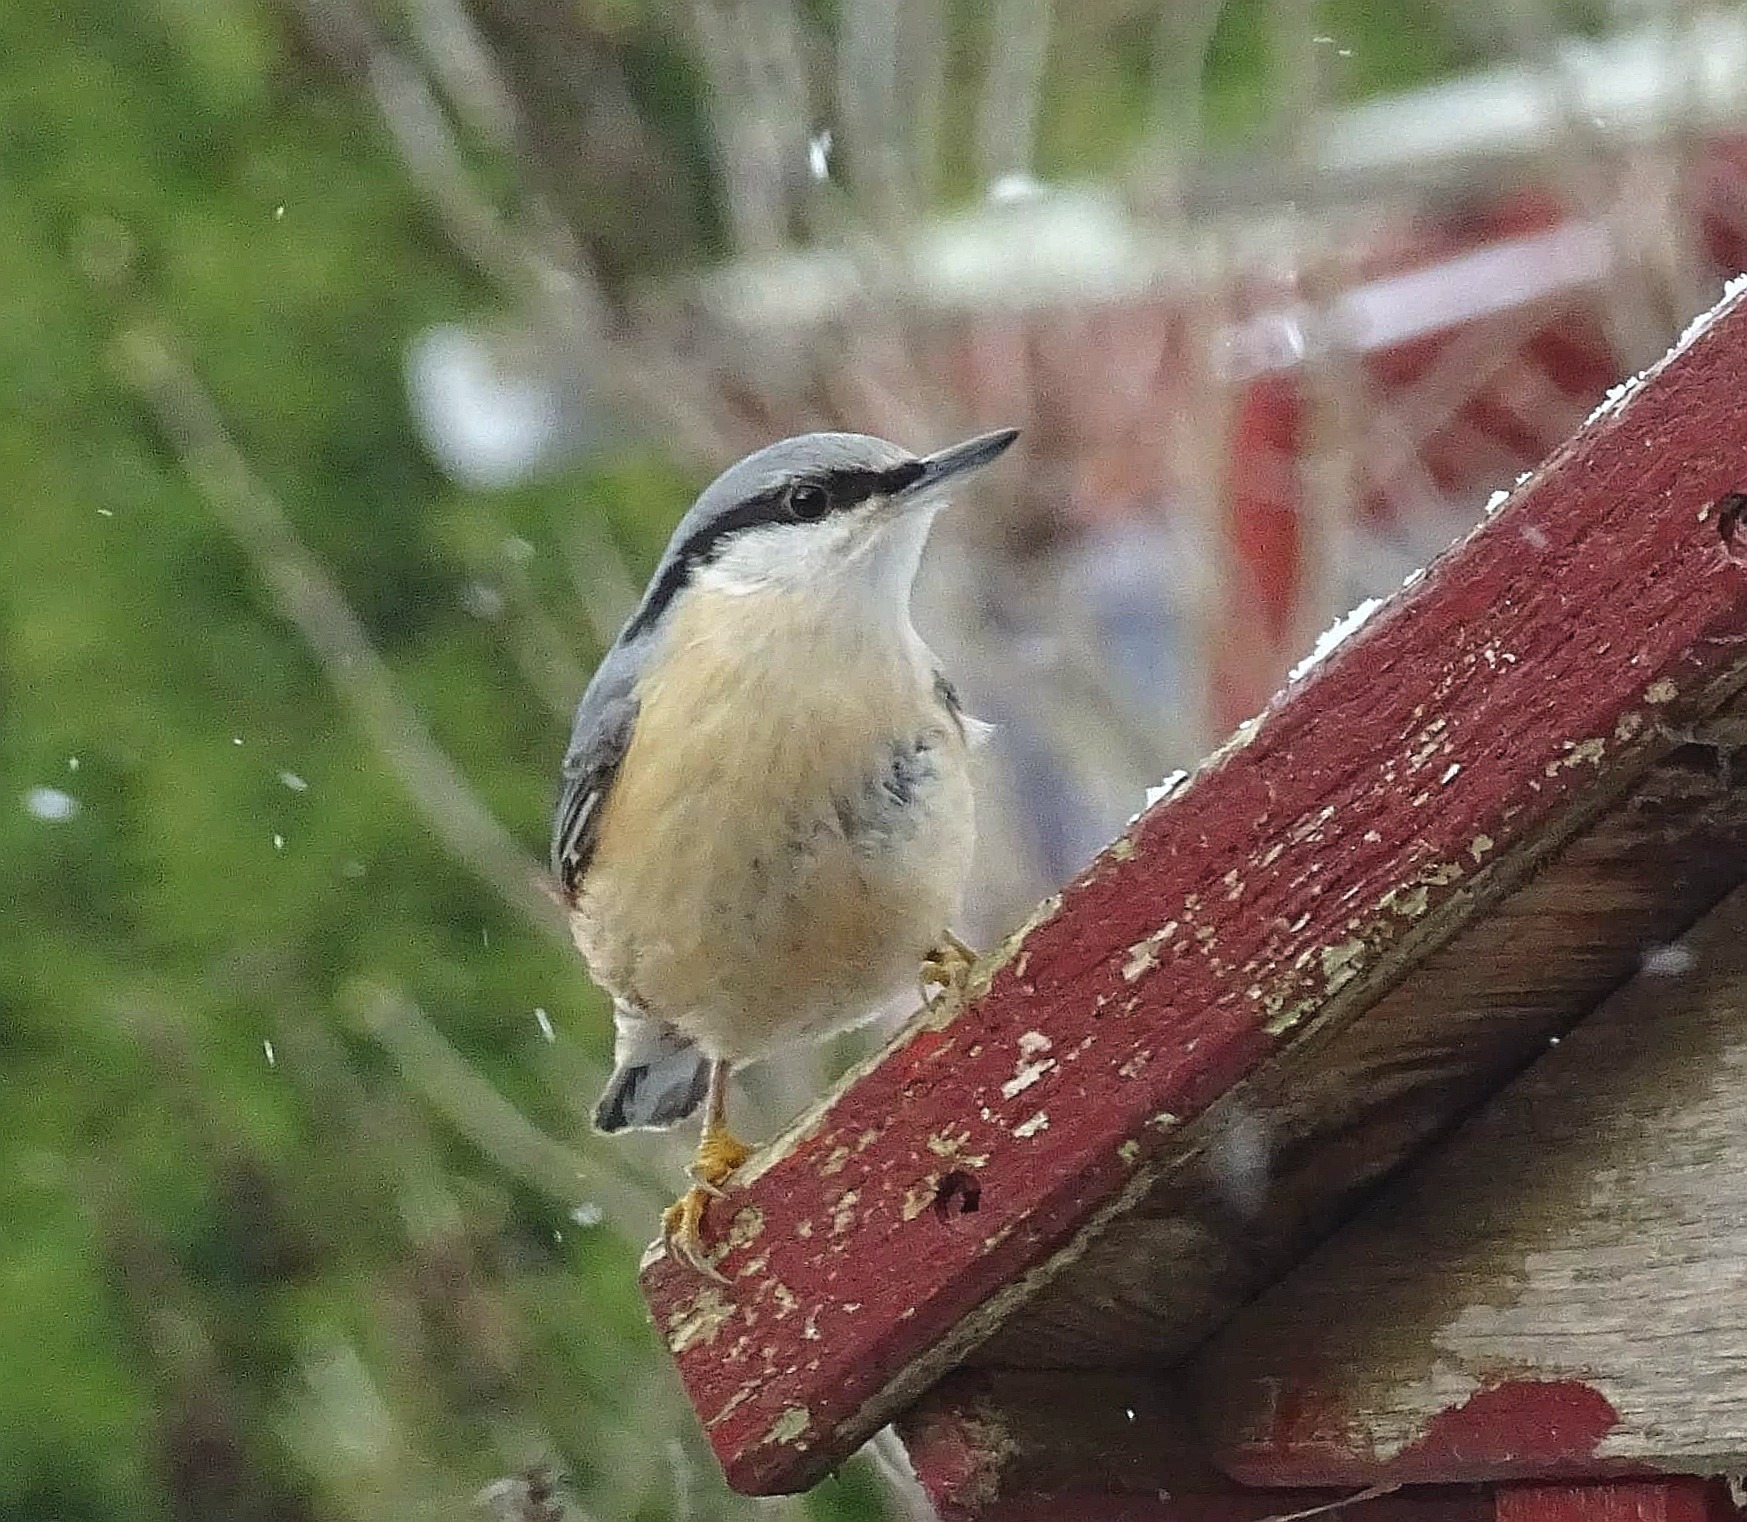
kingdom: Animalia
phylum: Chordata
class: Aves
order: Passeriformes
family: Sittidae
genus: Sitta
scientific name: Sitta europaea
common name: Spætmejse
